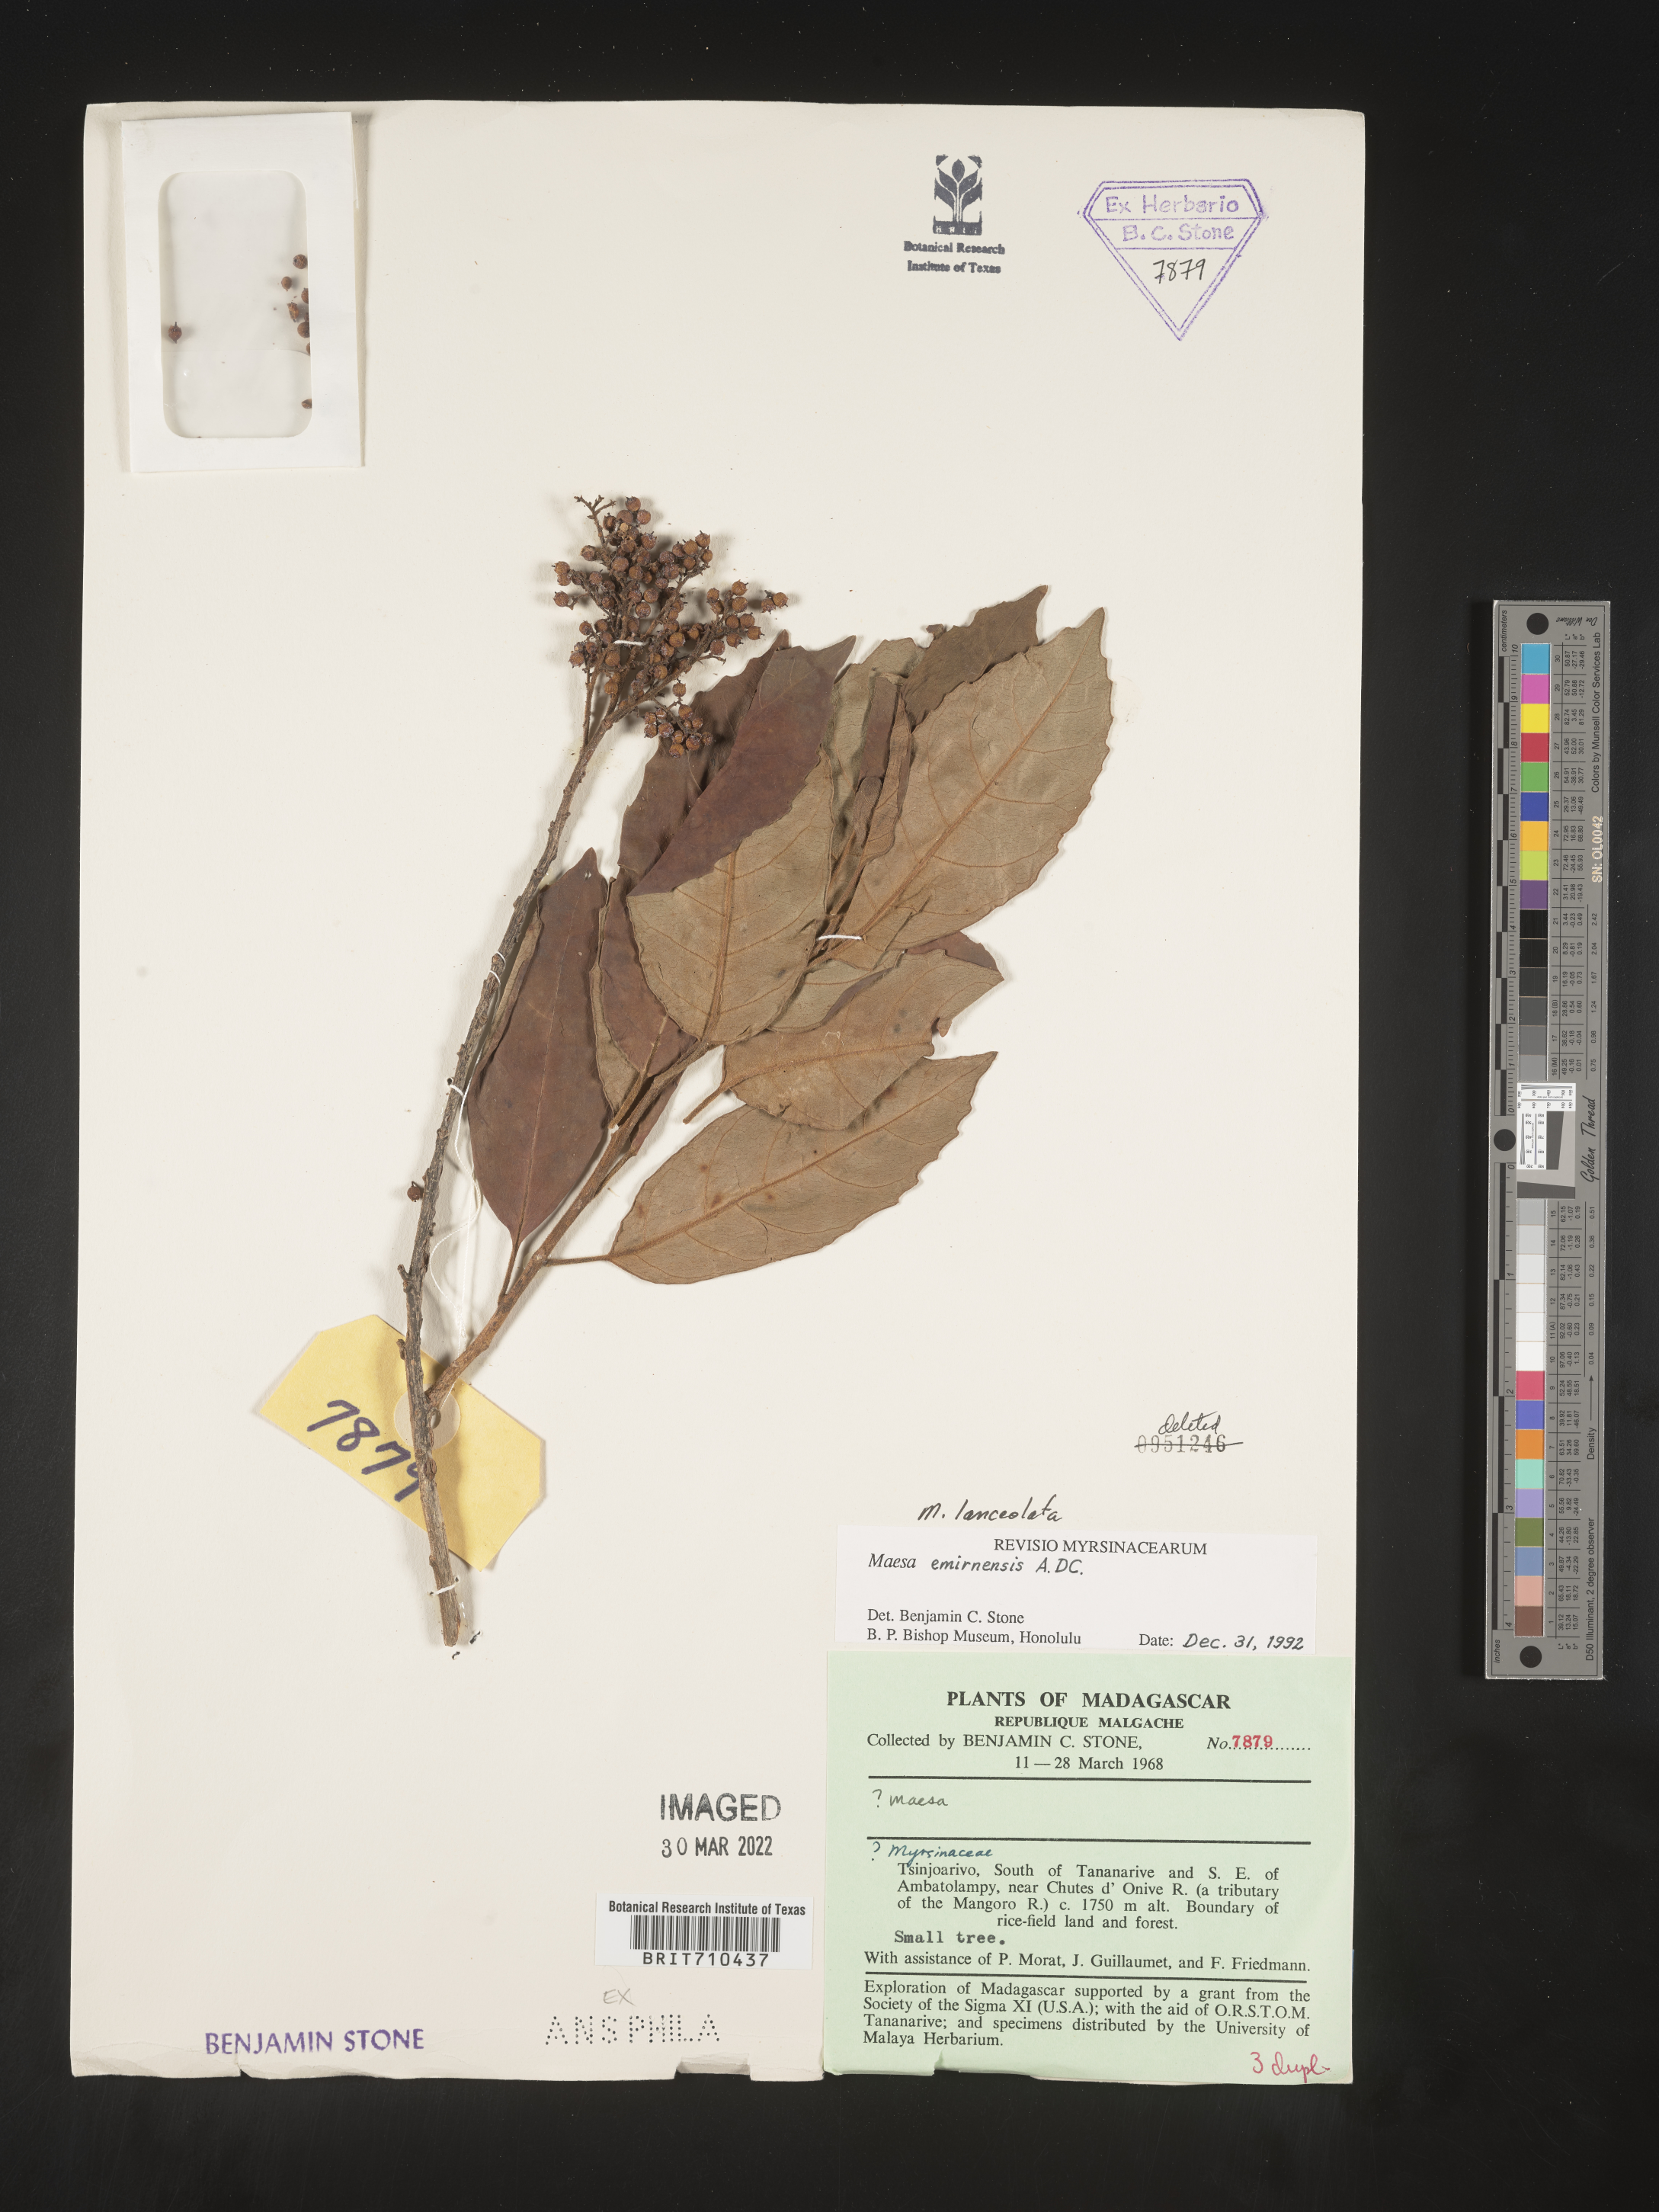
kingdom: Plantae
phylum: Tracheophyta
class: Magnoliopsida
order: Ericales
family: Primulaceae
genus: Maesa
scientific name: Maesa
